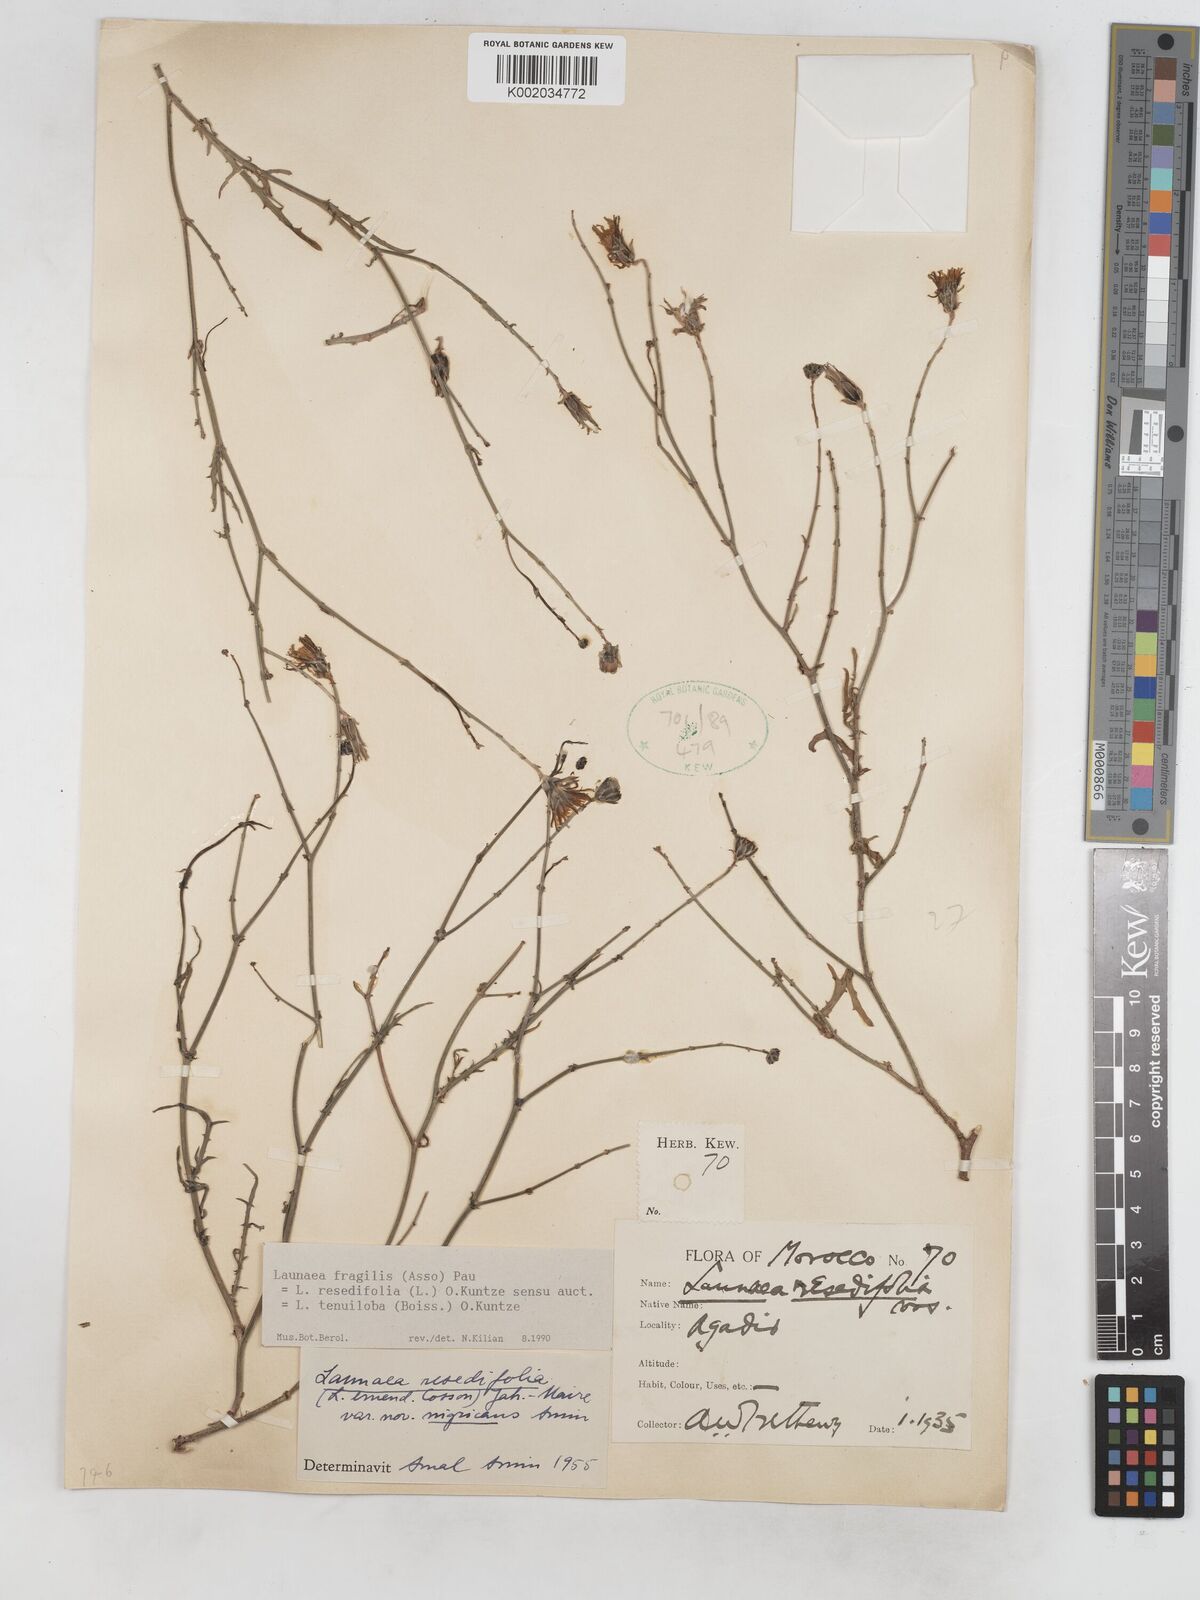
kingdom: Plantae
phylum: Tracheophyta
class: Magnoliopsida
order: Asterales
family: Asteraceae
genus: Launaea
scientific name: Launaea fragilis
